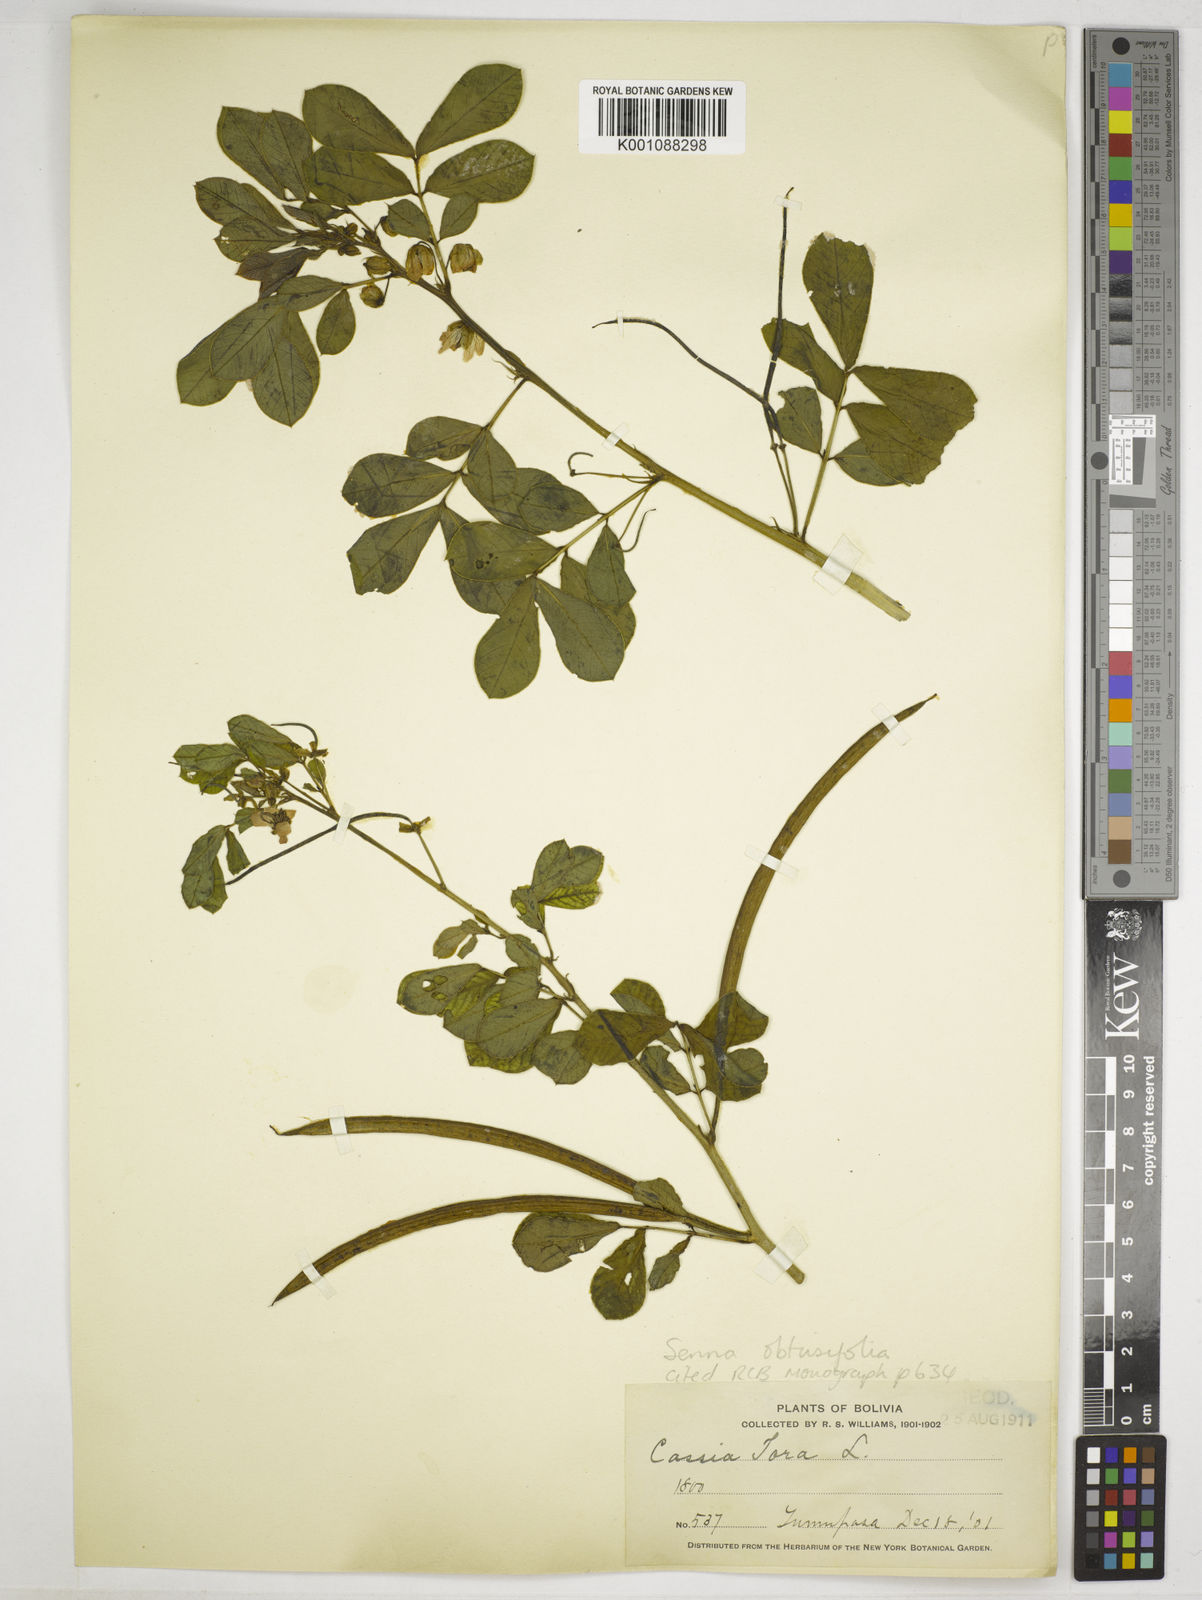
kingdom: Plantae
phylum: Tracheophyta
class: Magnoliopsida
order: Fabales
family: Fabaceae
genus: Senna
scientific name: Senna obtusifolia
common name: Java-bean
